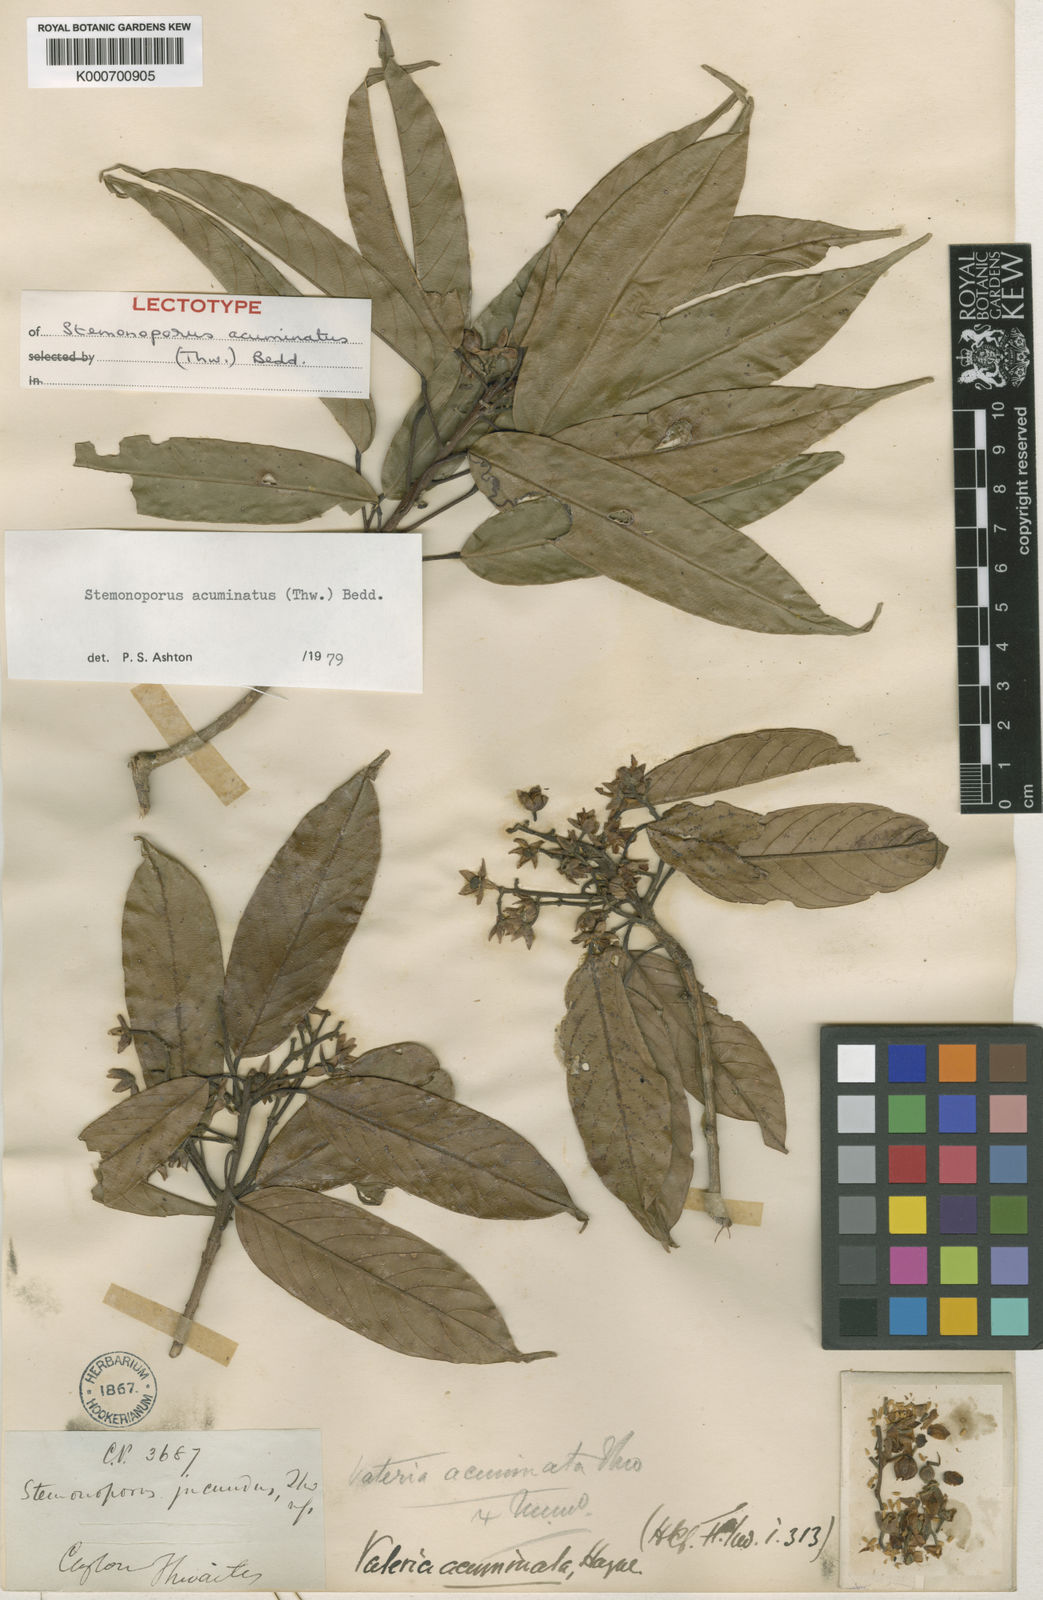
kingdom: Plantae
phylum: Tracheophyta
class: Magnoliopsida
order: Malvales
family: Dipterocarpaceae
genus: Stemonoporus
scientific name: Stemonoporus acuminatus
